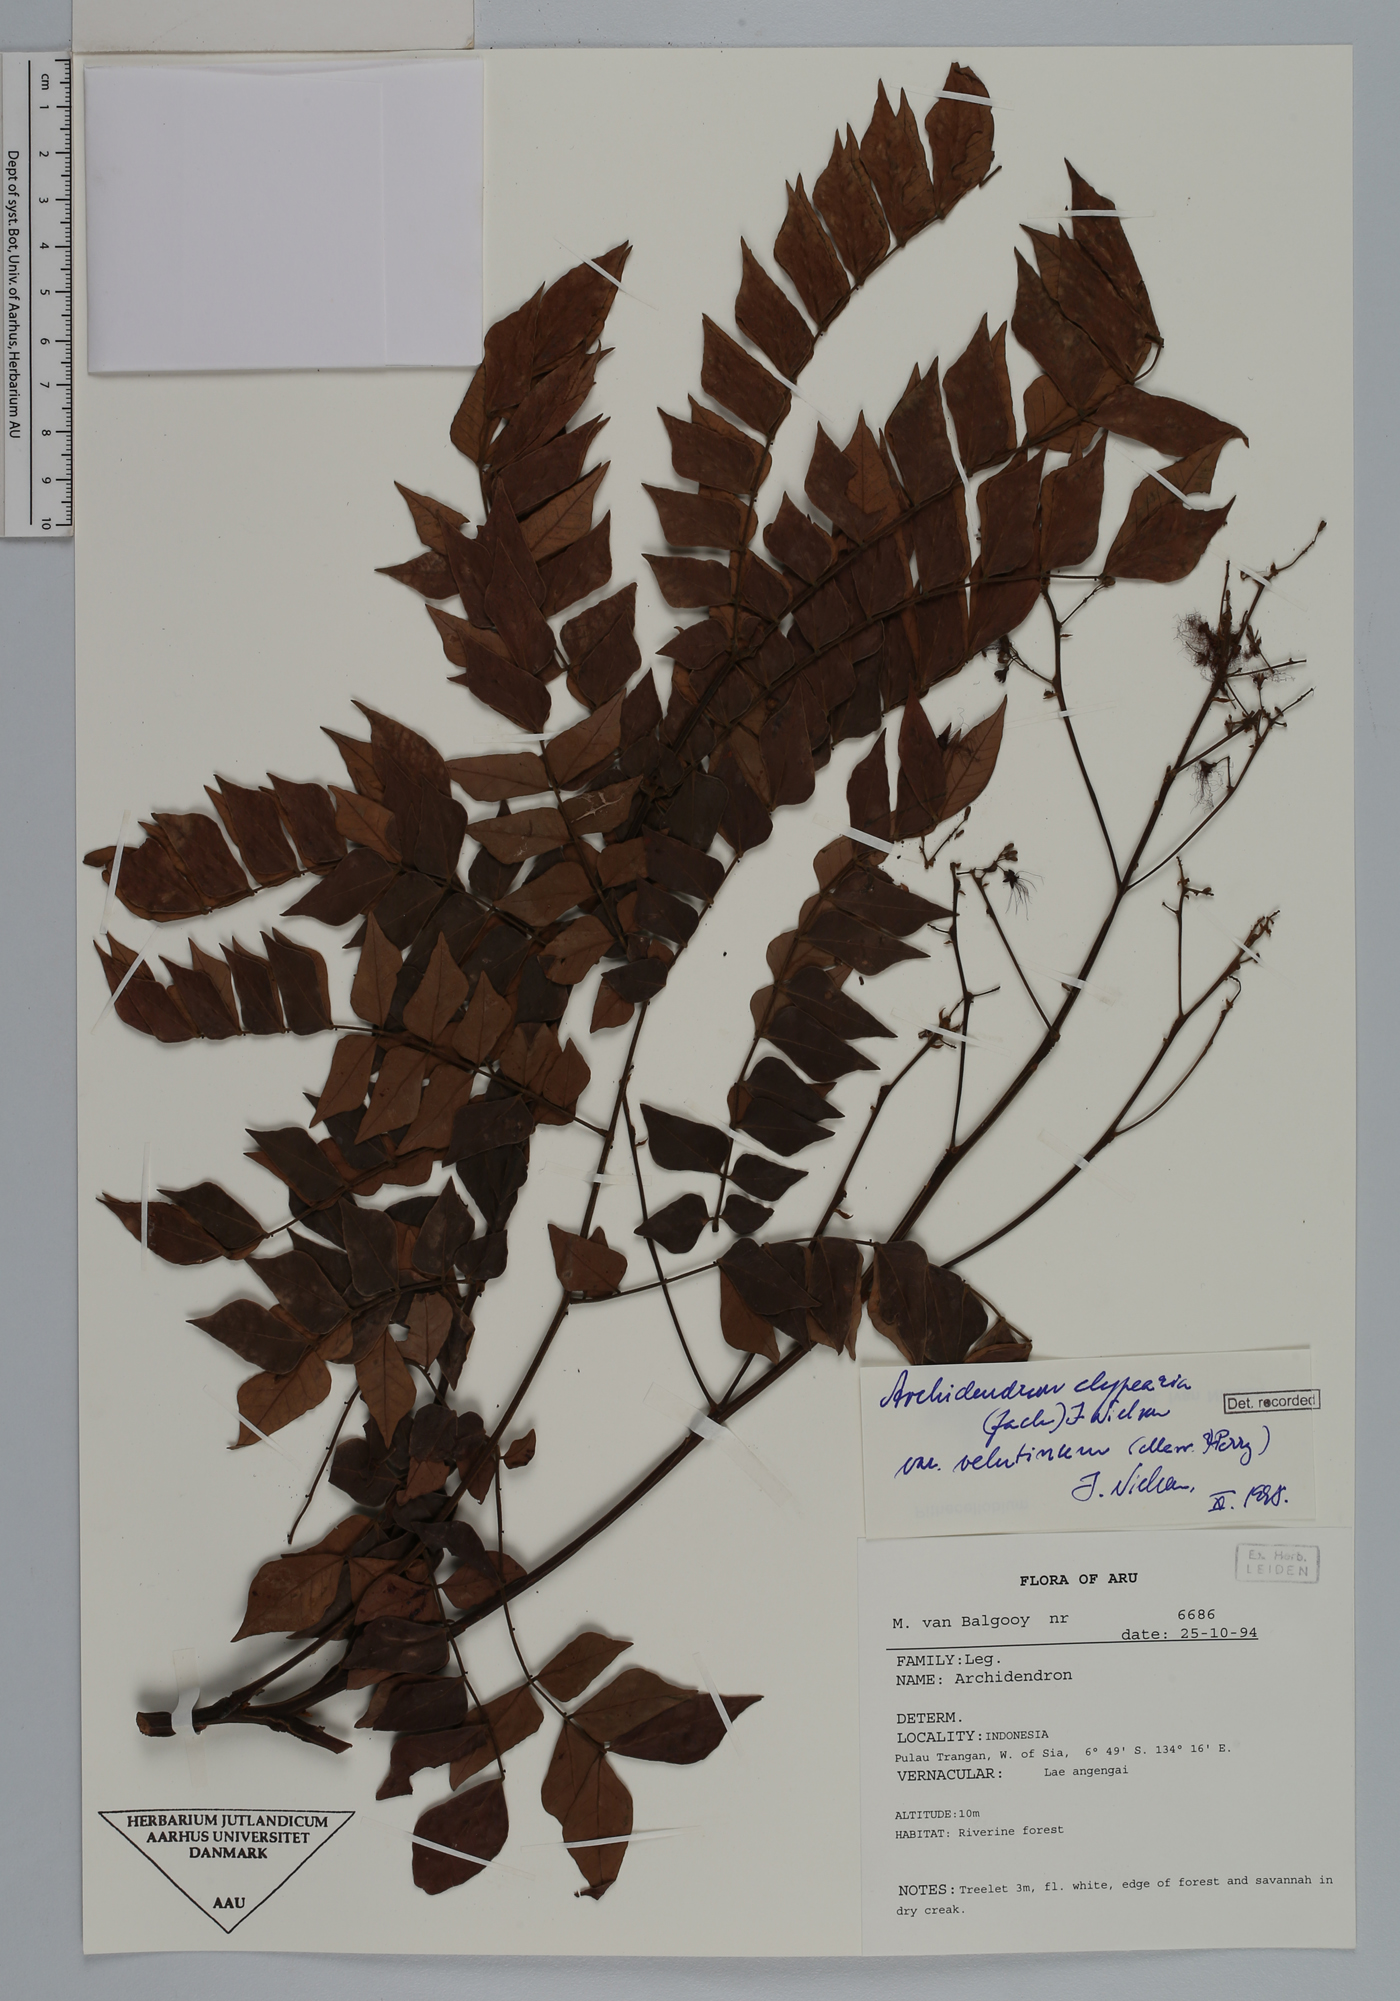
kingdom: Plantae
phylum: Tracheophyta
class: Magnoliopsida
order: Fabales
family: Fabaceae
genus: Archidendron
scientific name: Archidendron clypearia
